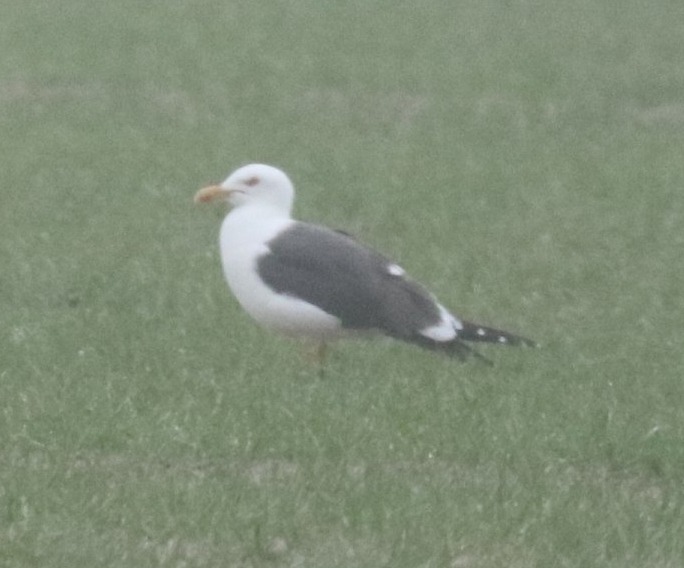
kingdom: Animalia
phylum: Chordata
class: Aves
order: Charadriiformes
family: Laridae
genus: Larus
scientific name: Larus fuscus
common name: Sildemåge
